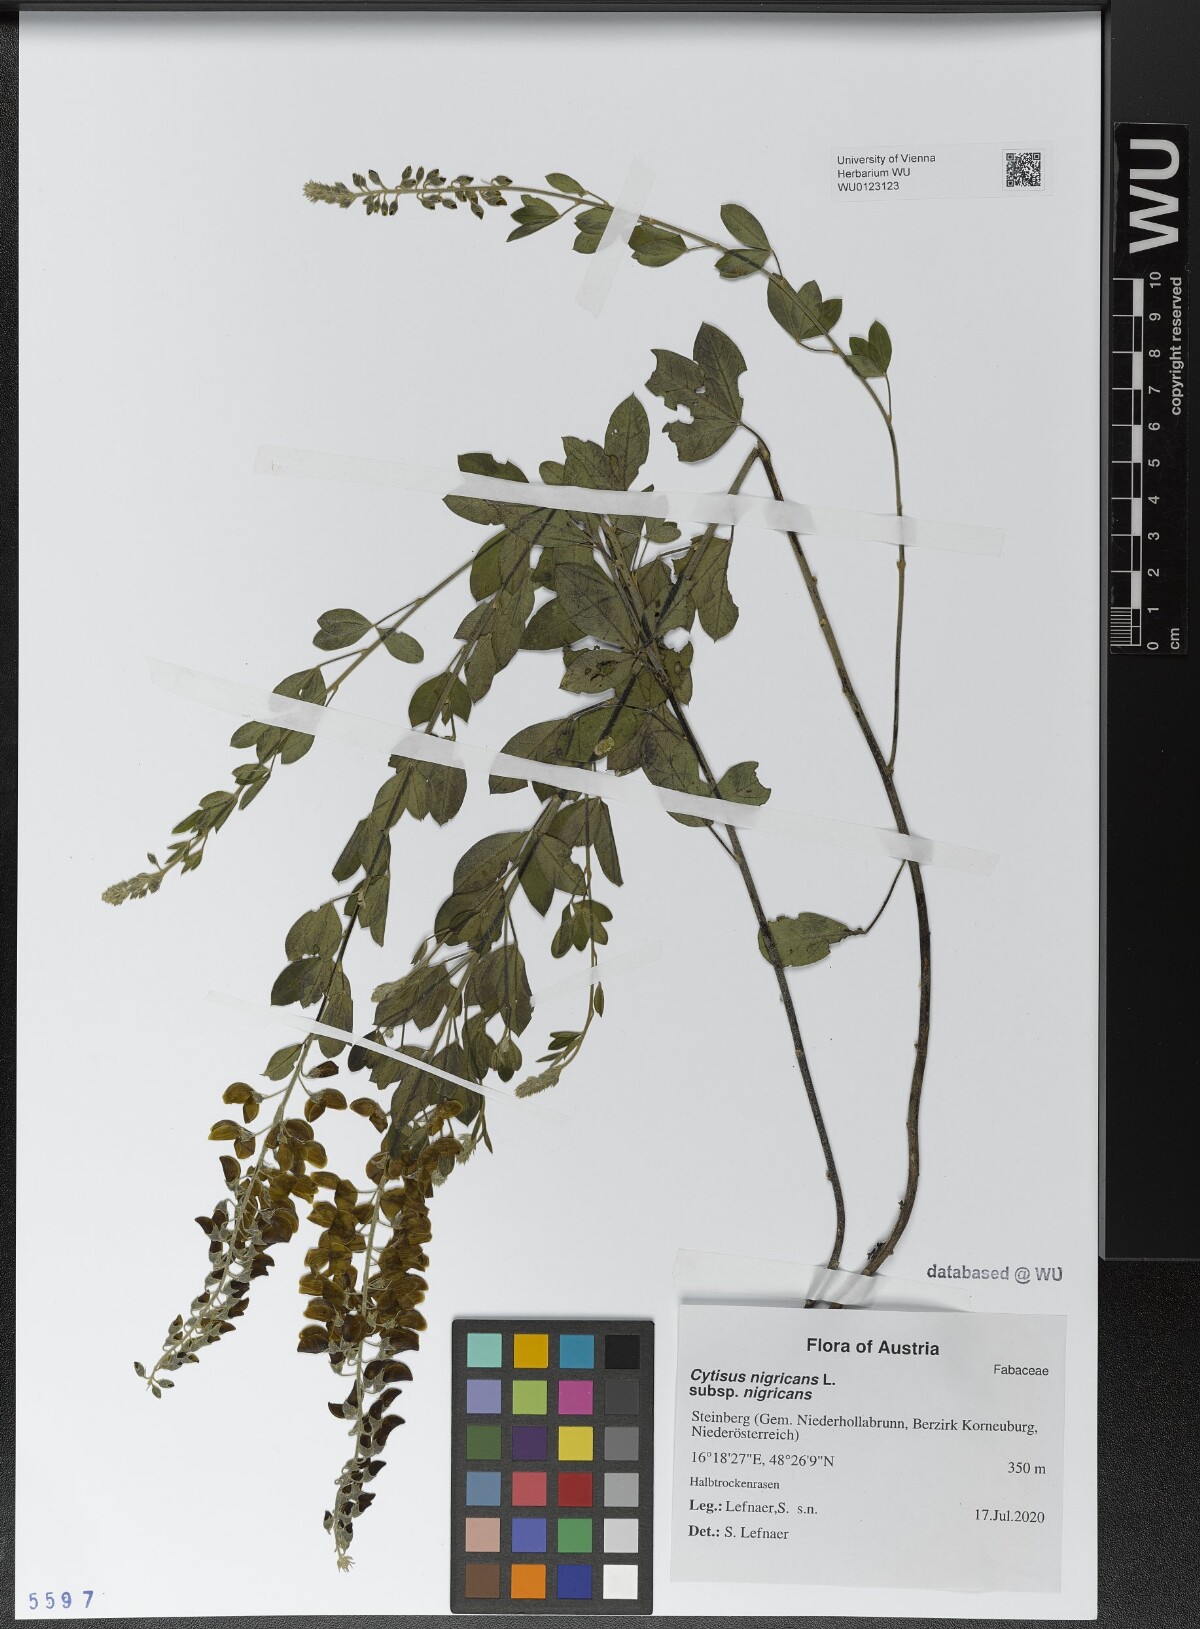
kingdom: Plantae
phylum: Tracheophyta
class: Magnoliopsida
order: Fabales
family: Fabaceae
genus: Cytisus
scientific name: Cytisus nigricans
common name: Black broom
